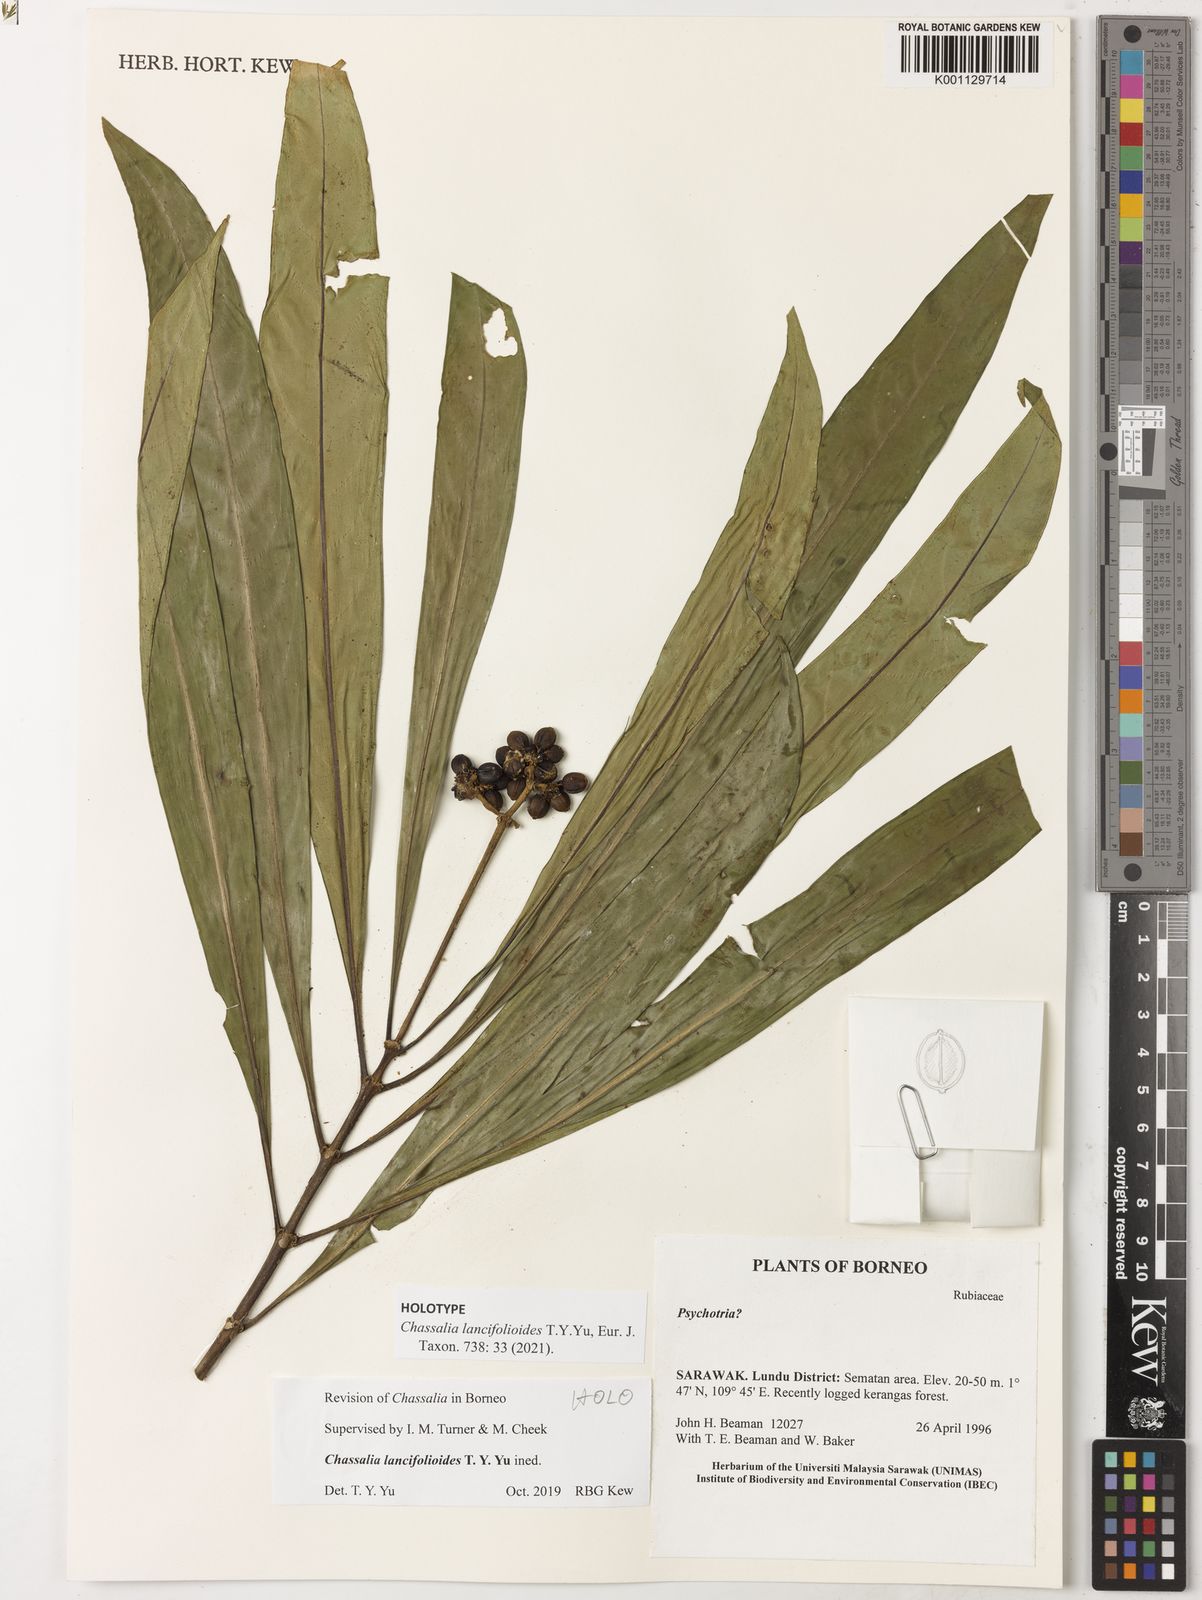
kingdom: Plantae
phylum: Tracheophyta
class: Magnoliopsida
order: Gentianales
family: Rubiaceae
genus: Chassalia
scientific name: Chassalia
